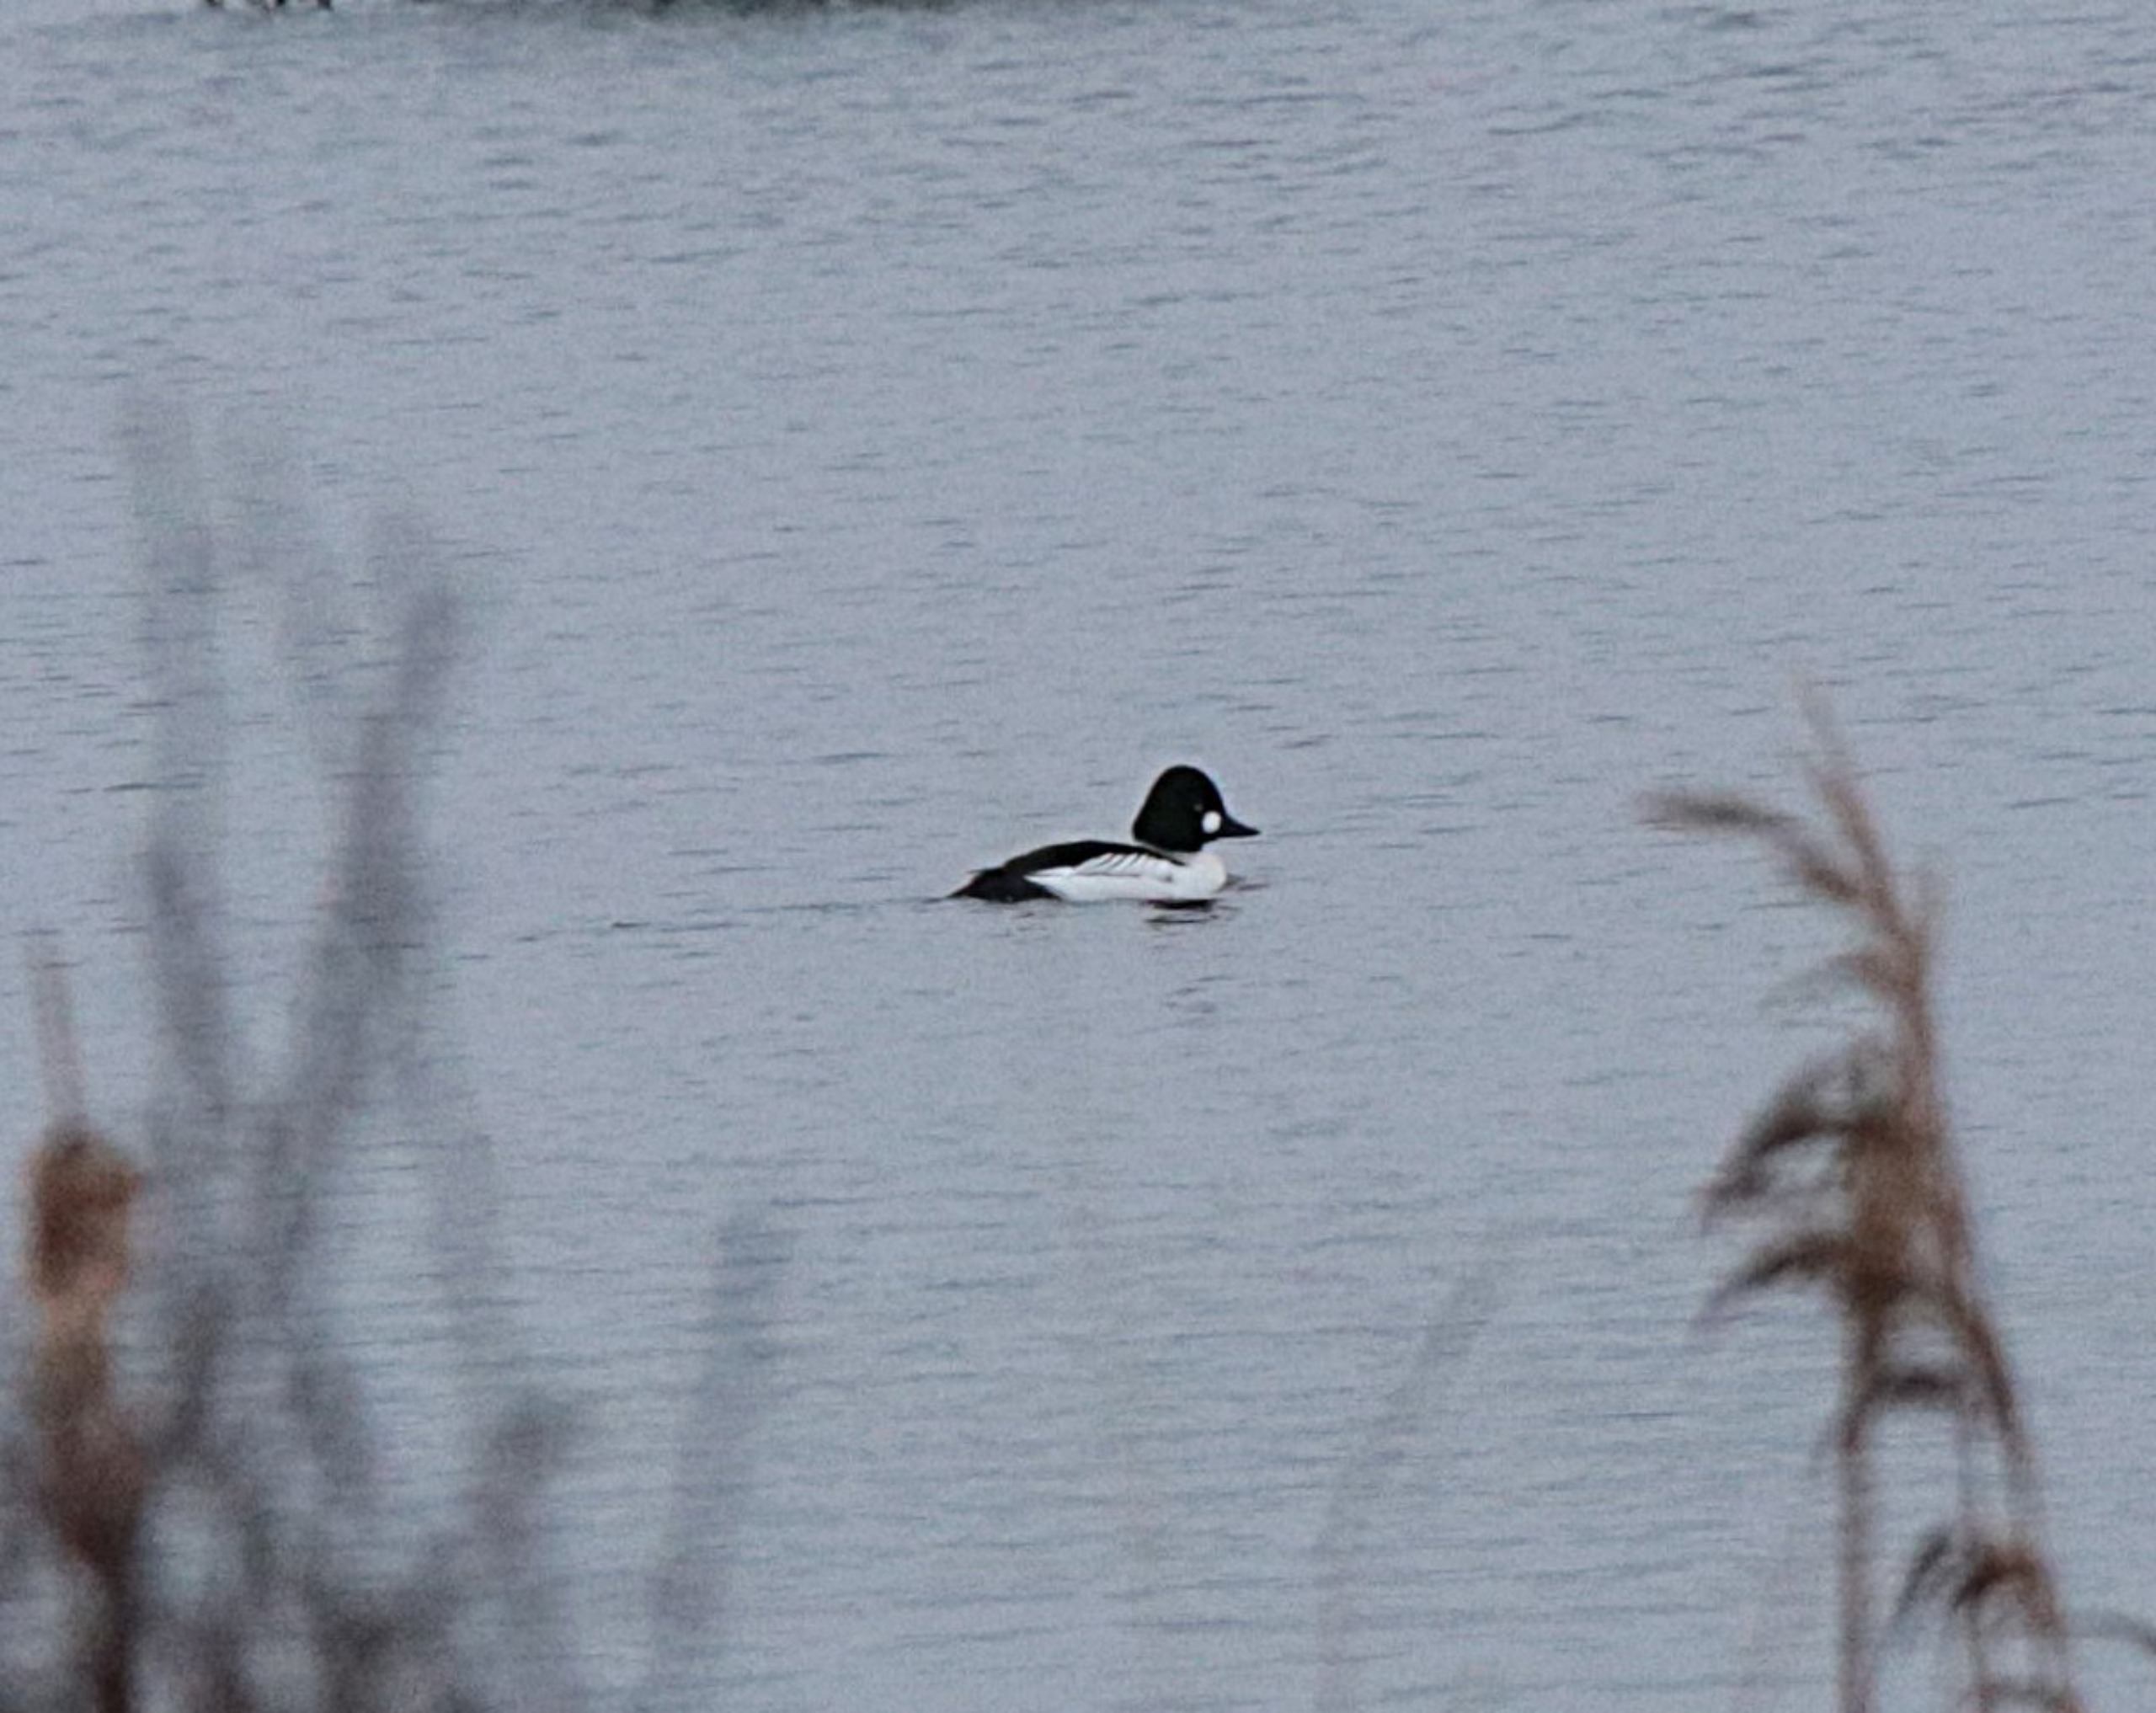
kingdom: Animalia
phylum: Chordata
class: Aves
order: Anseriformes
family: Anatidae
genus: Bucephala
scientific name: Bucephala clangula
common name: Hvinand
